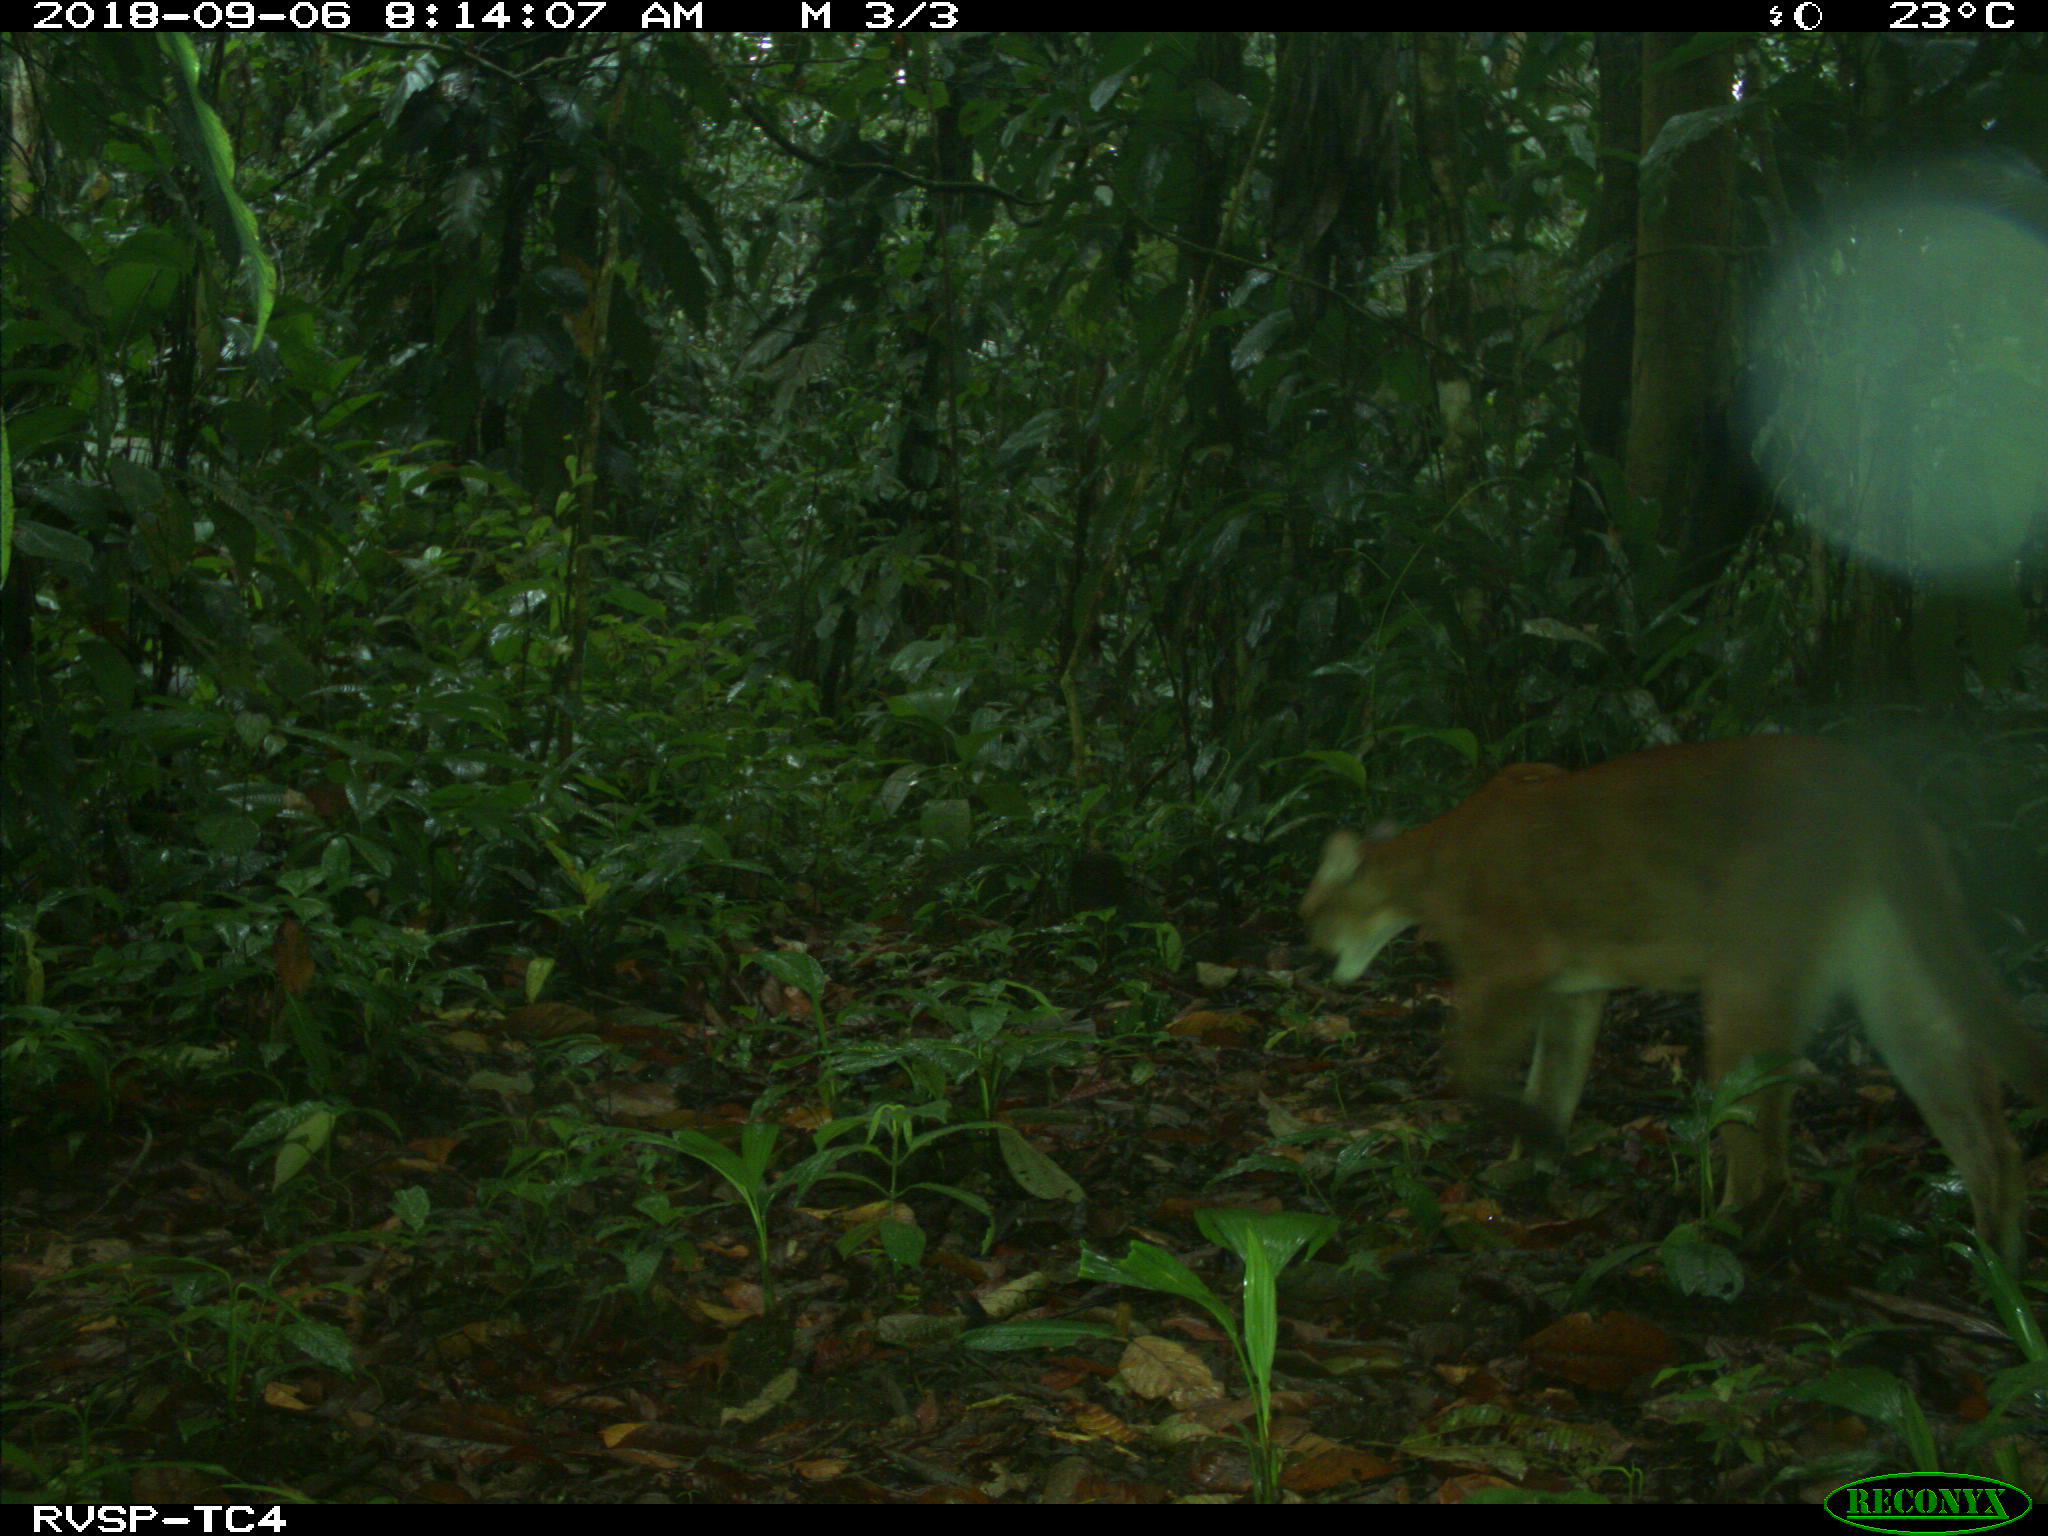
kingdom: Animalia
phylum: Chordata
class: Mammalia
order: Carnivora
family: Felidae
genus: Puma
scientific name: Puma concolor
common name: Puma
